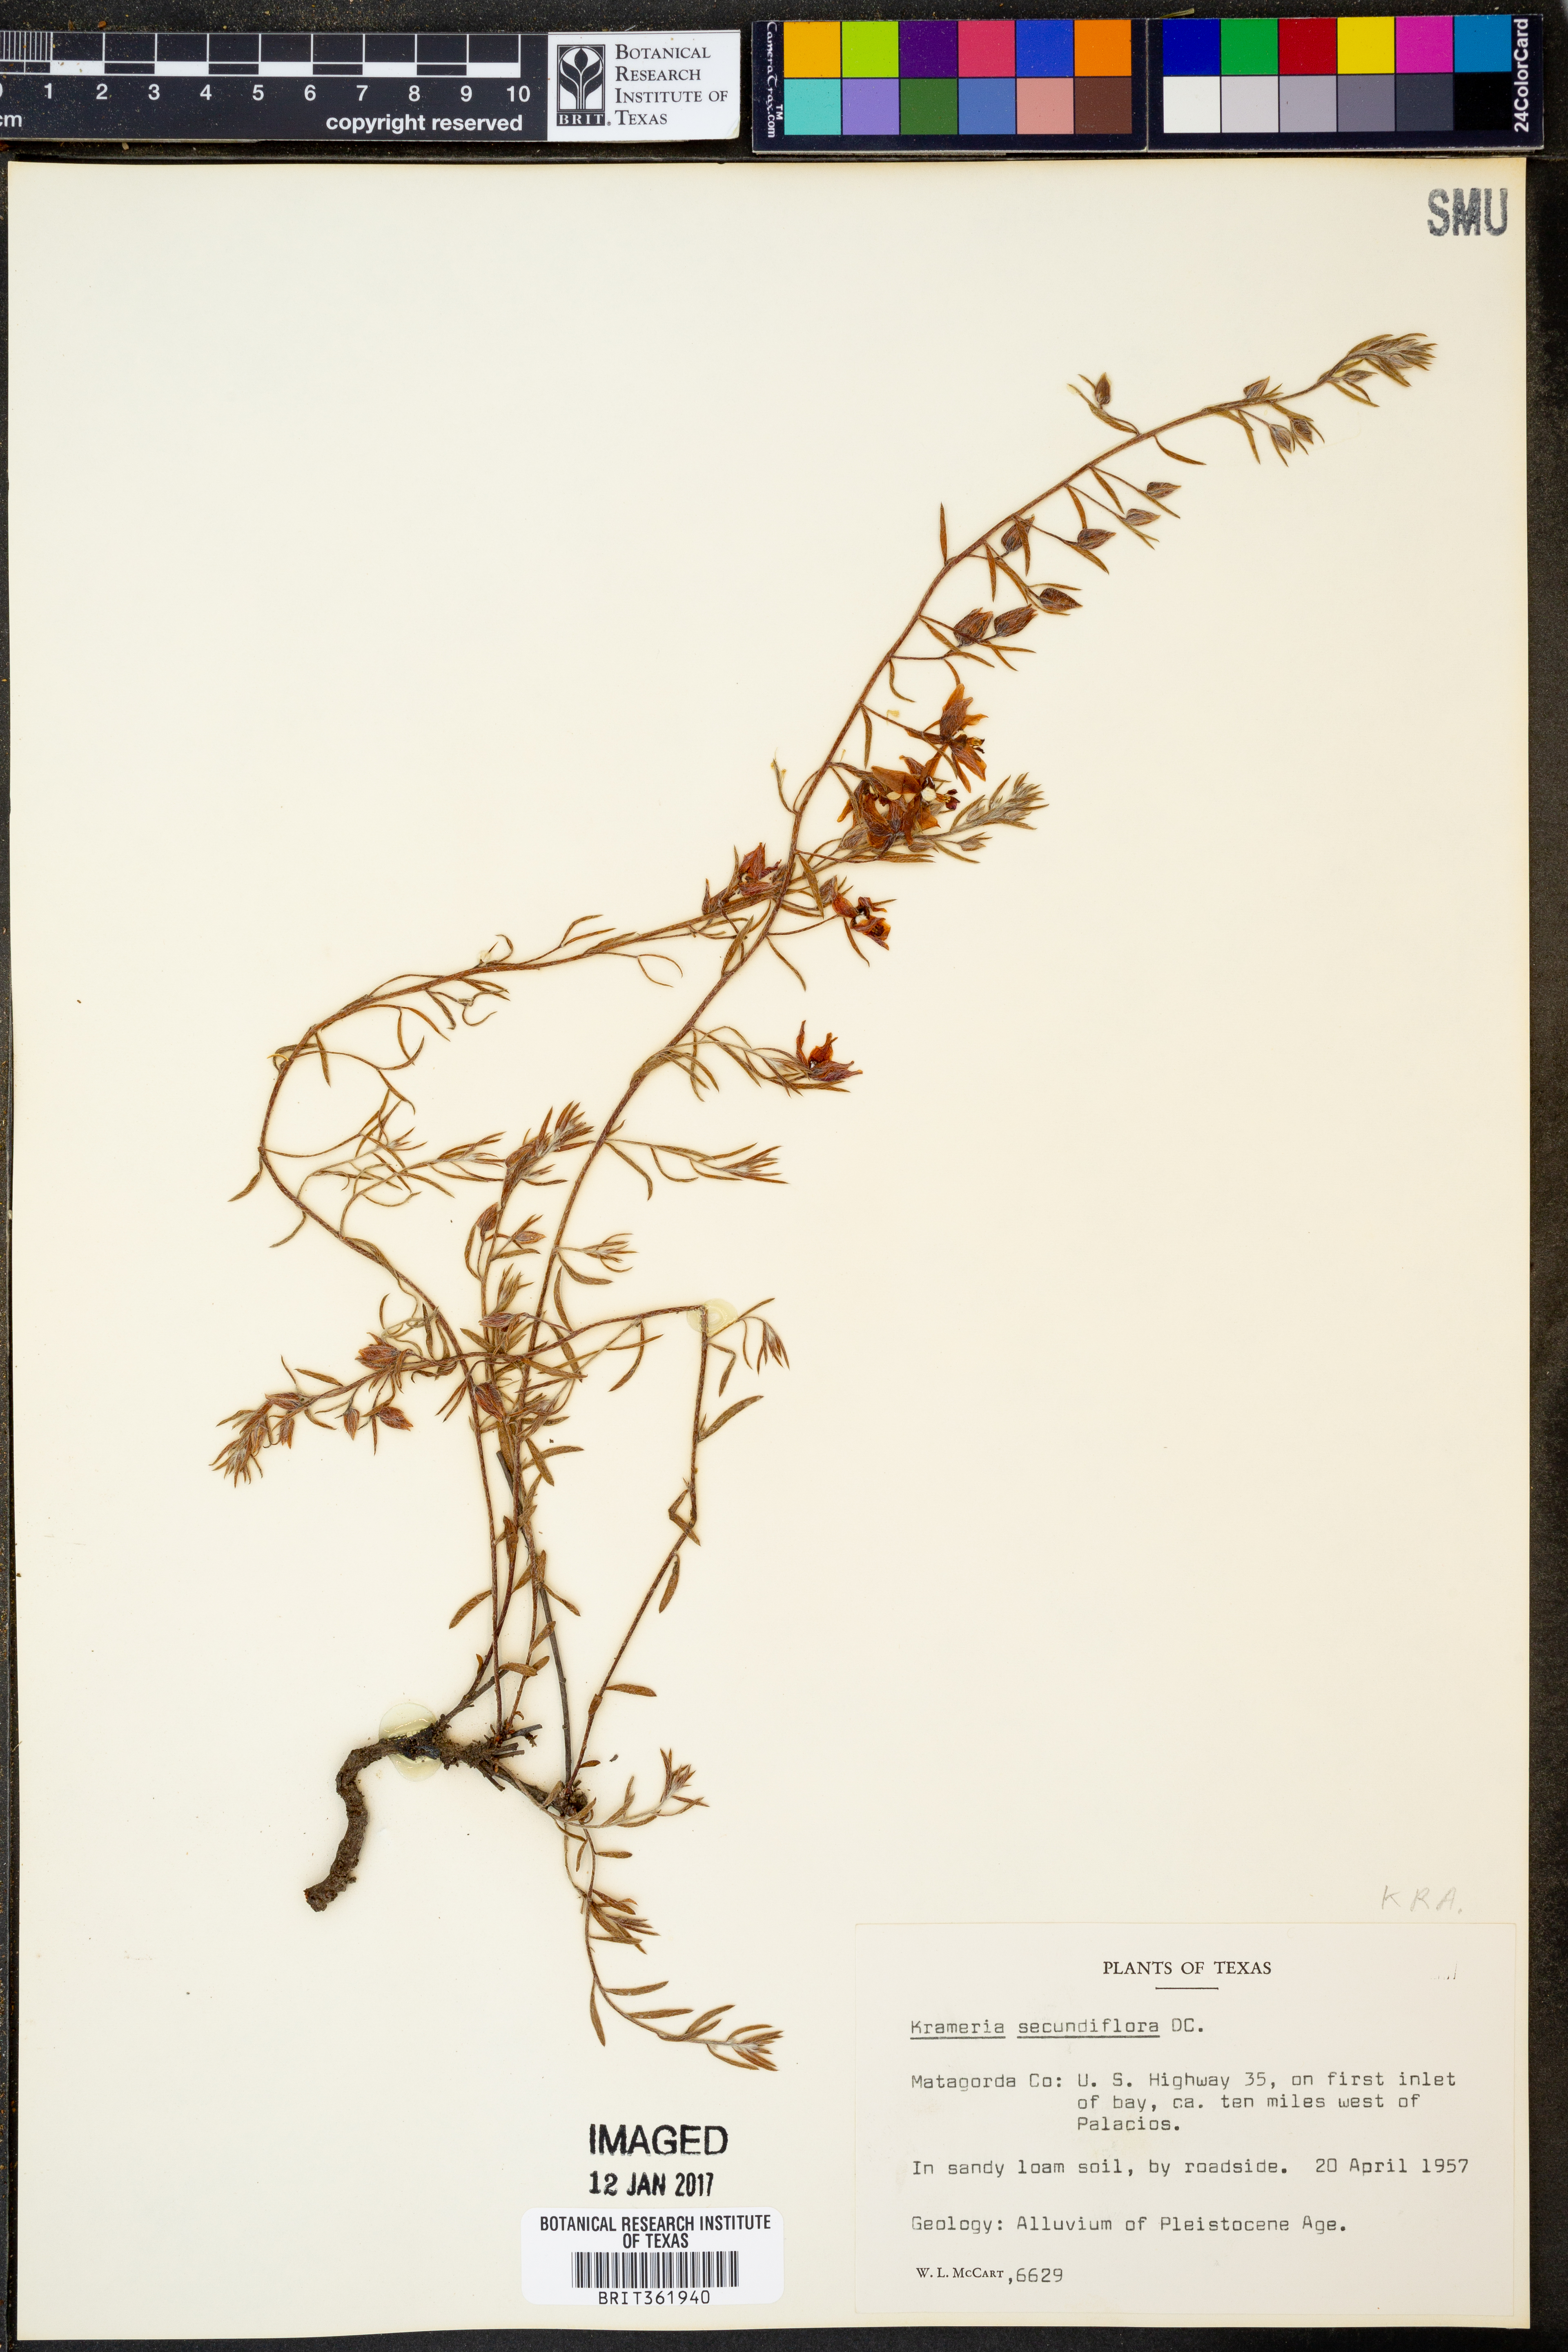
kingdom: Plantae
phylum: Tracheophyta
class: Magnoliopsida
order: Zygophyllales
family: Krameriaceae
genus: Krameria
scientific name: Krameria secundiflora
